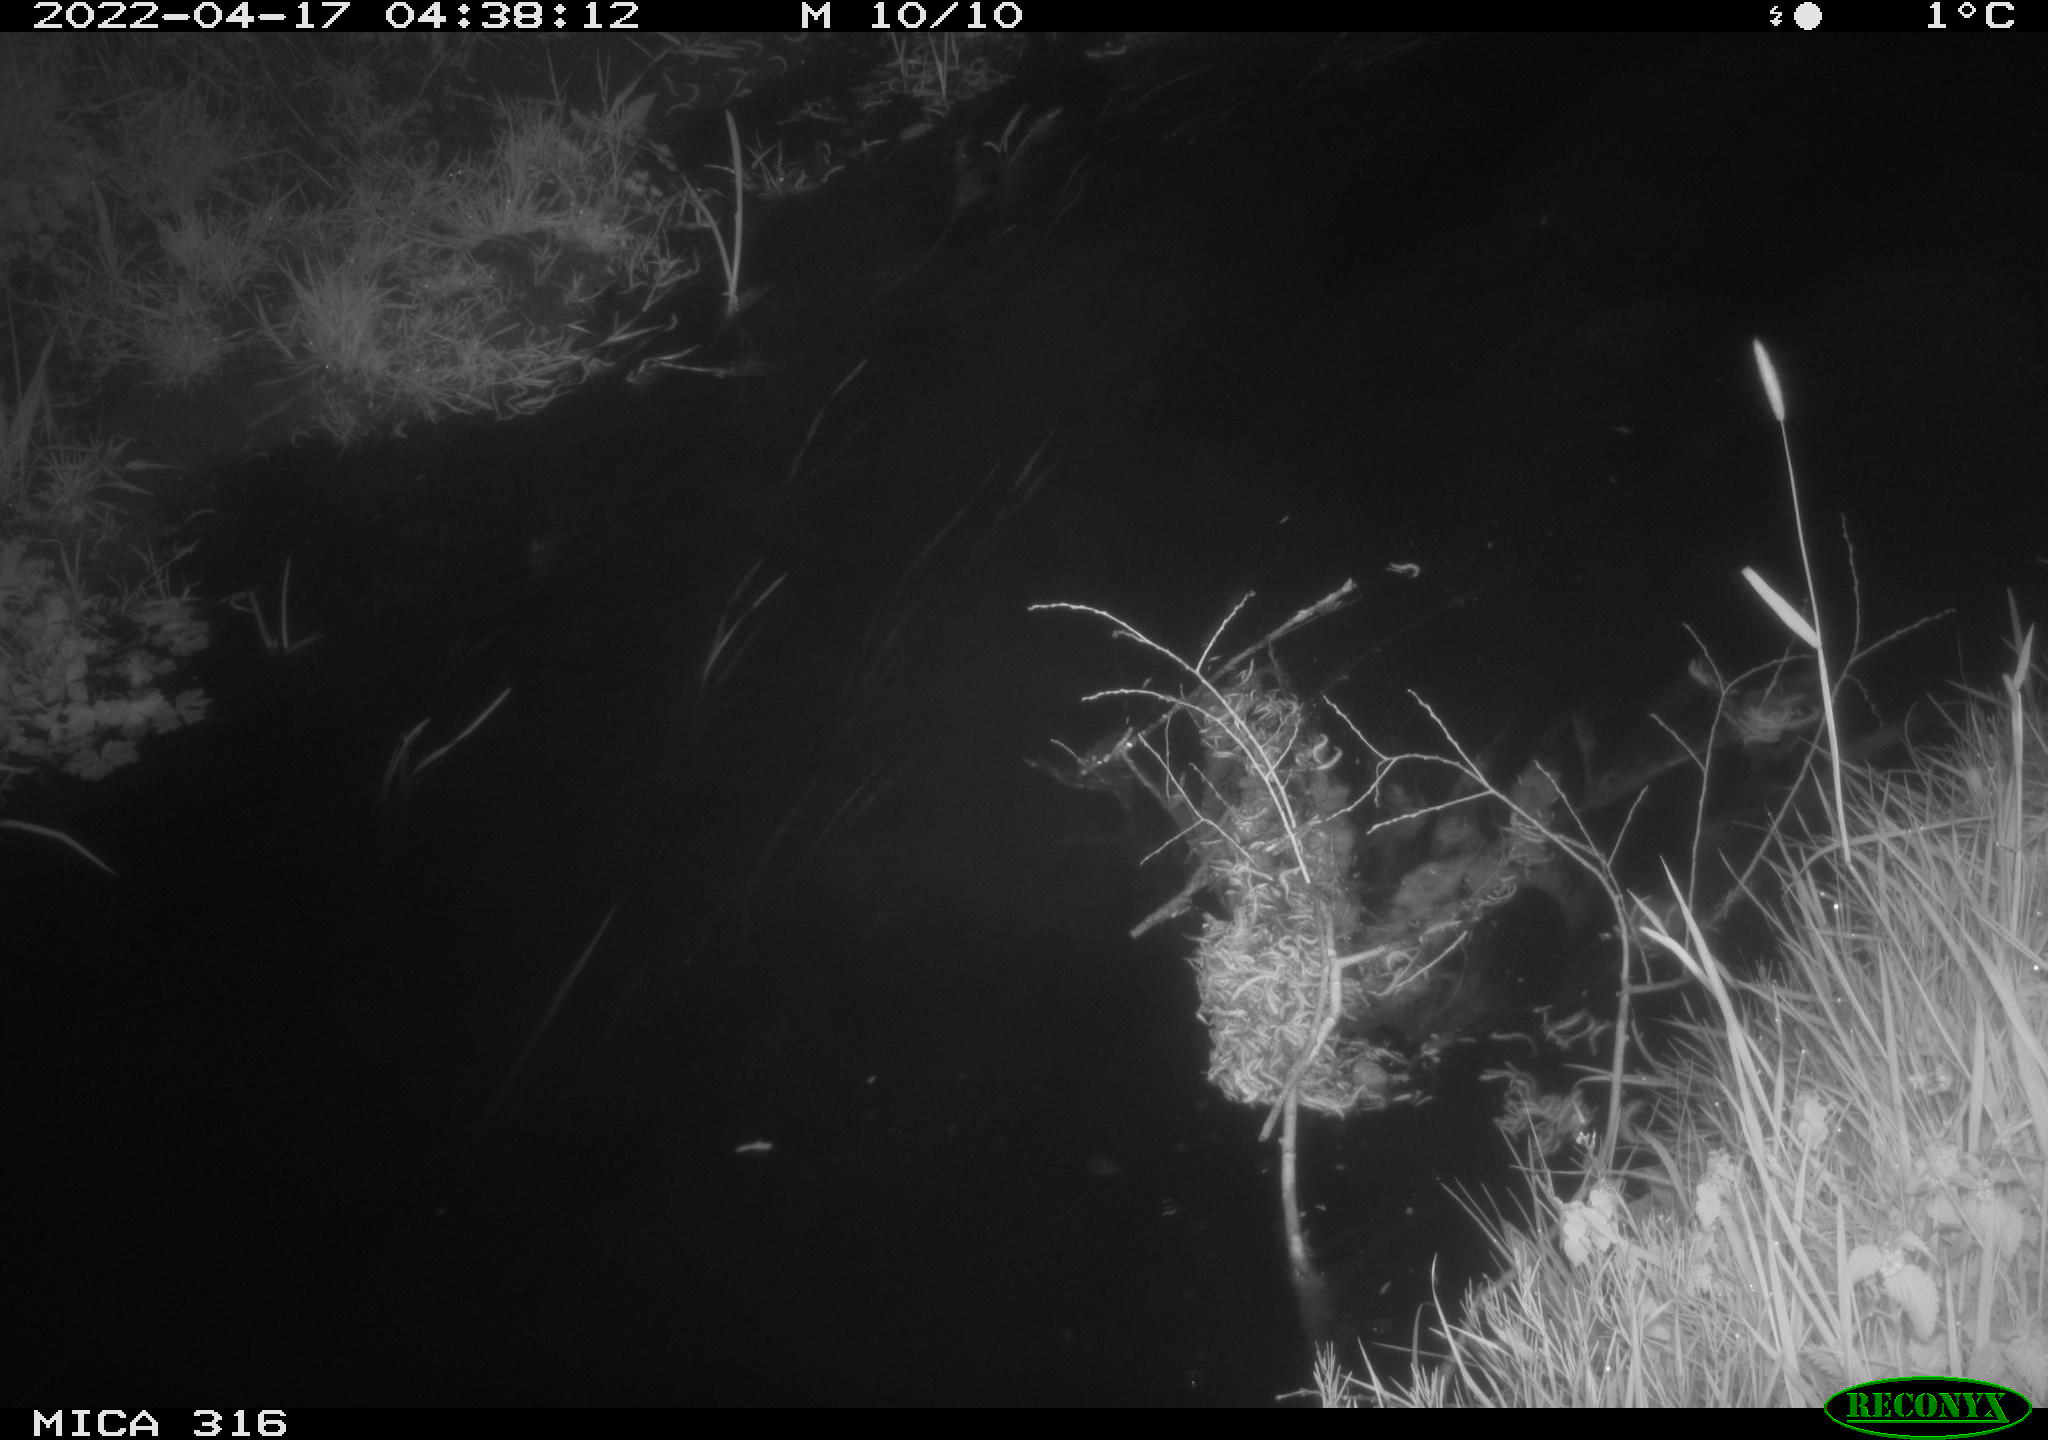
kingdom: Animalia
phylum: Chordata
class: Aves
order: Anseriformes
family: Anatidae
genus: Anas
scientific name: Anas platyrhynchos
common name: Mallard
